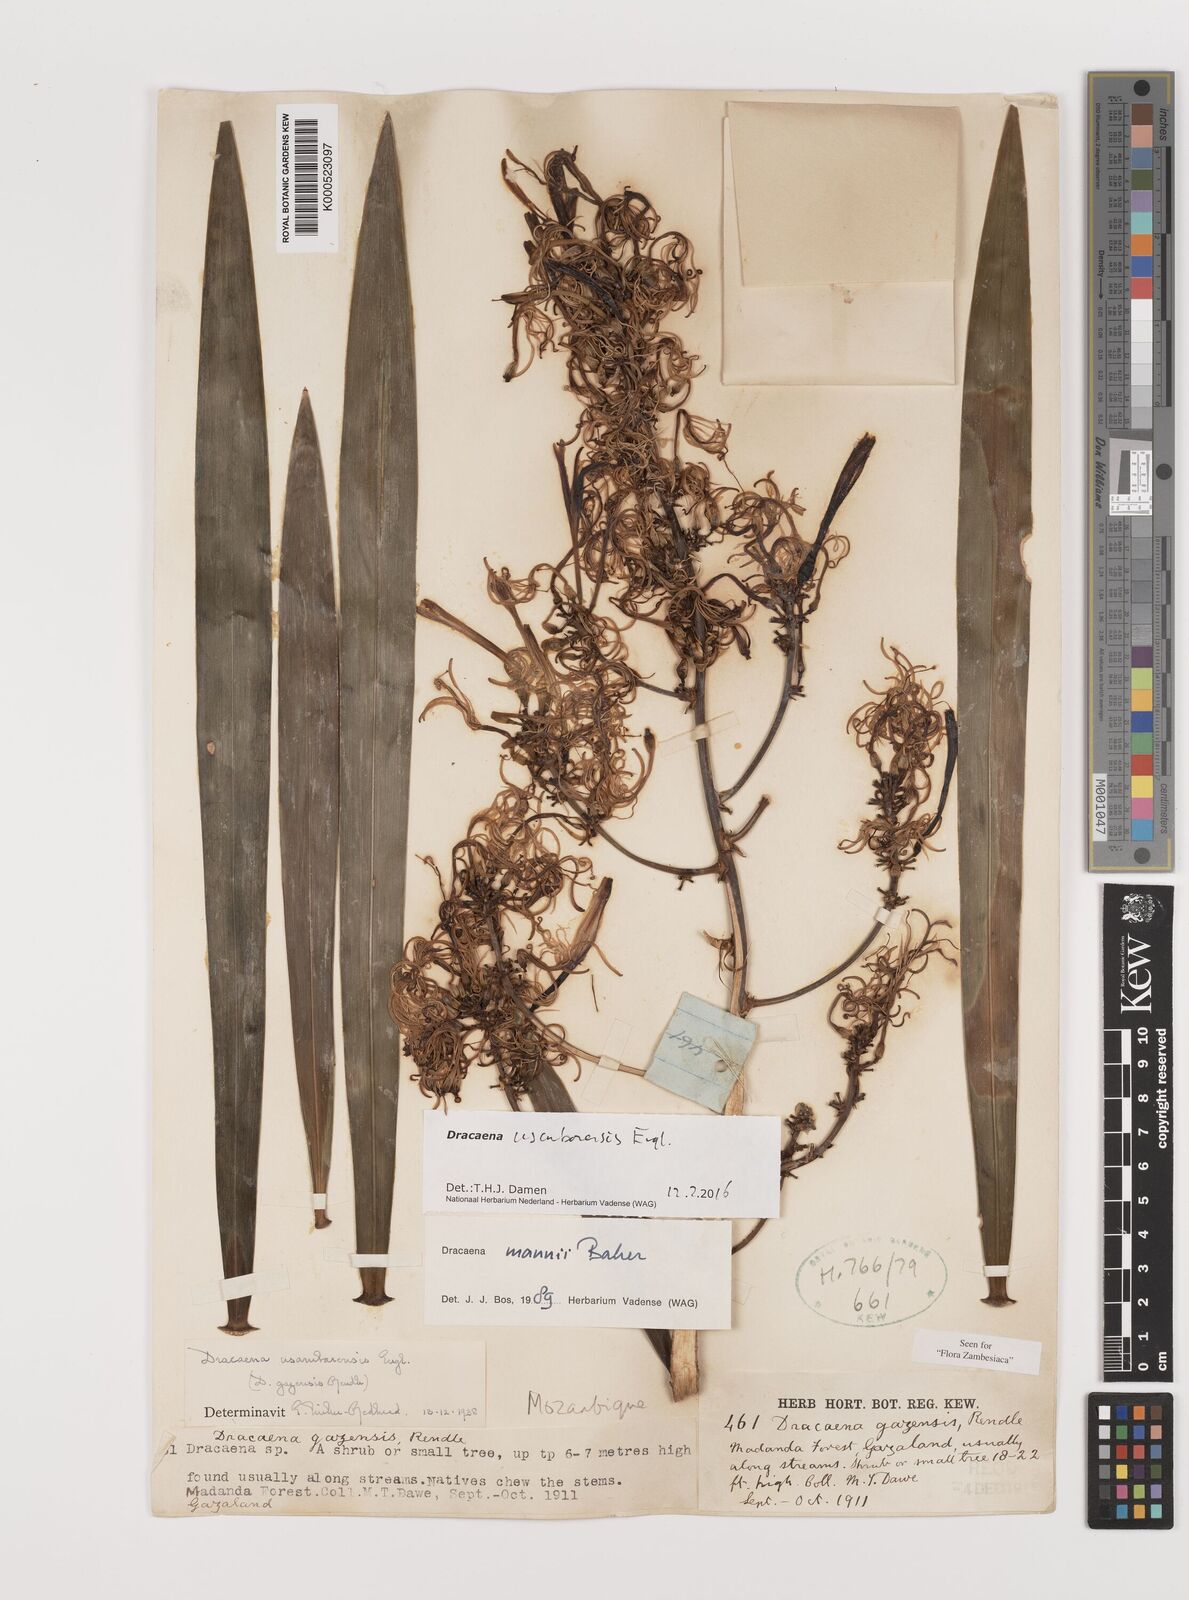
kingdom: Plantae
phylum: Tracheophyta
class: Liliopsida
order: Asparagales
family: Asparagaceae
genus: Dracaena
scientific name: Dracaena usambarensis
